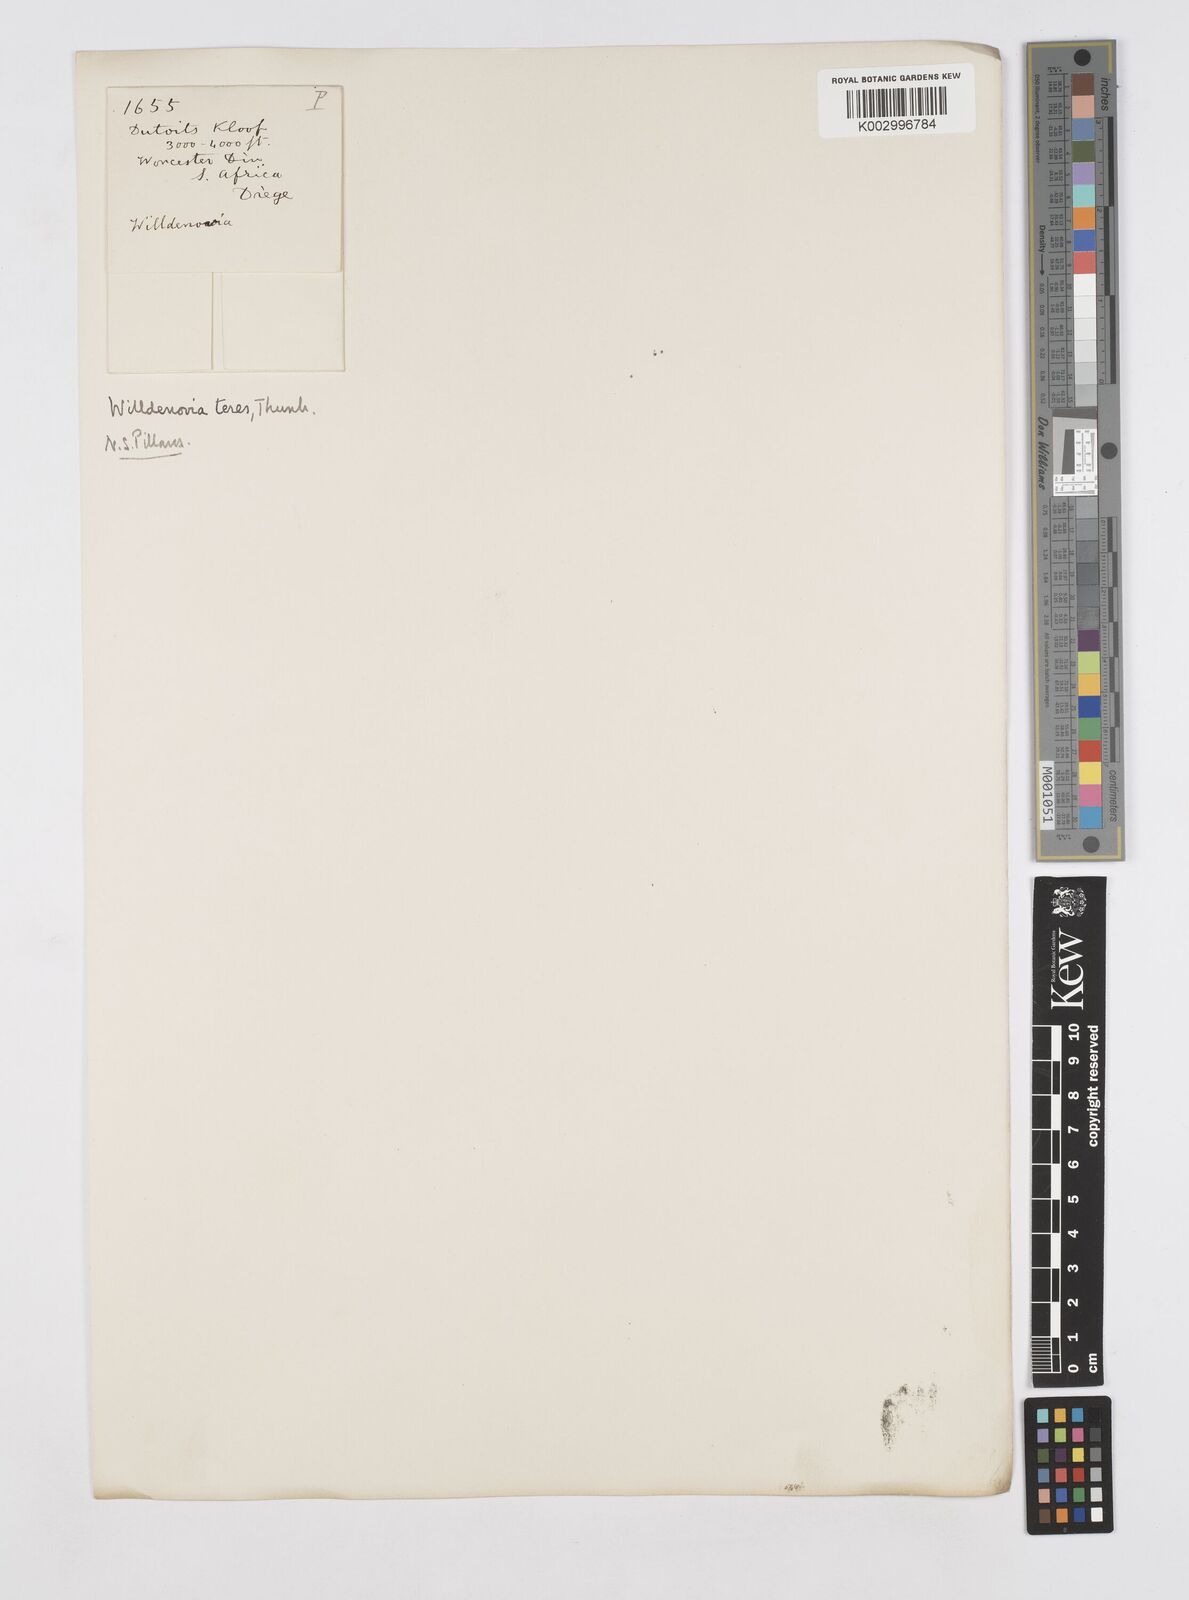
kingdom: Plantae
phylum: Tracheophyta
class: Liliopsida
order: Poales
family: Restionaceae
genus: Willdenowia
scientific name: Willdenowia teres
